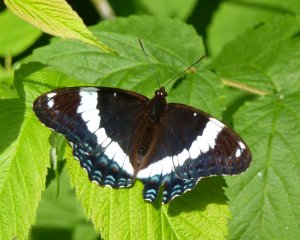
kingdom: Animalia
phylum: Arthropoda
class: Insecta
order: Lepidoptera
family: Nymphalidae
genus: Limenitis
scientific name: Limenitis arthemis
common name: Red-spotted Admiral
